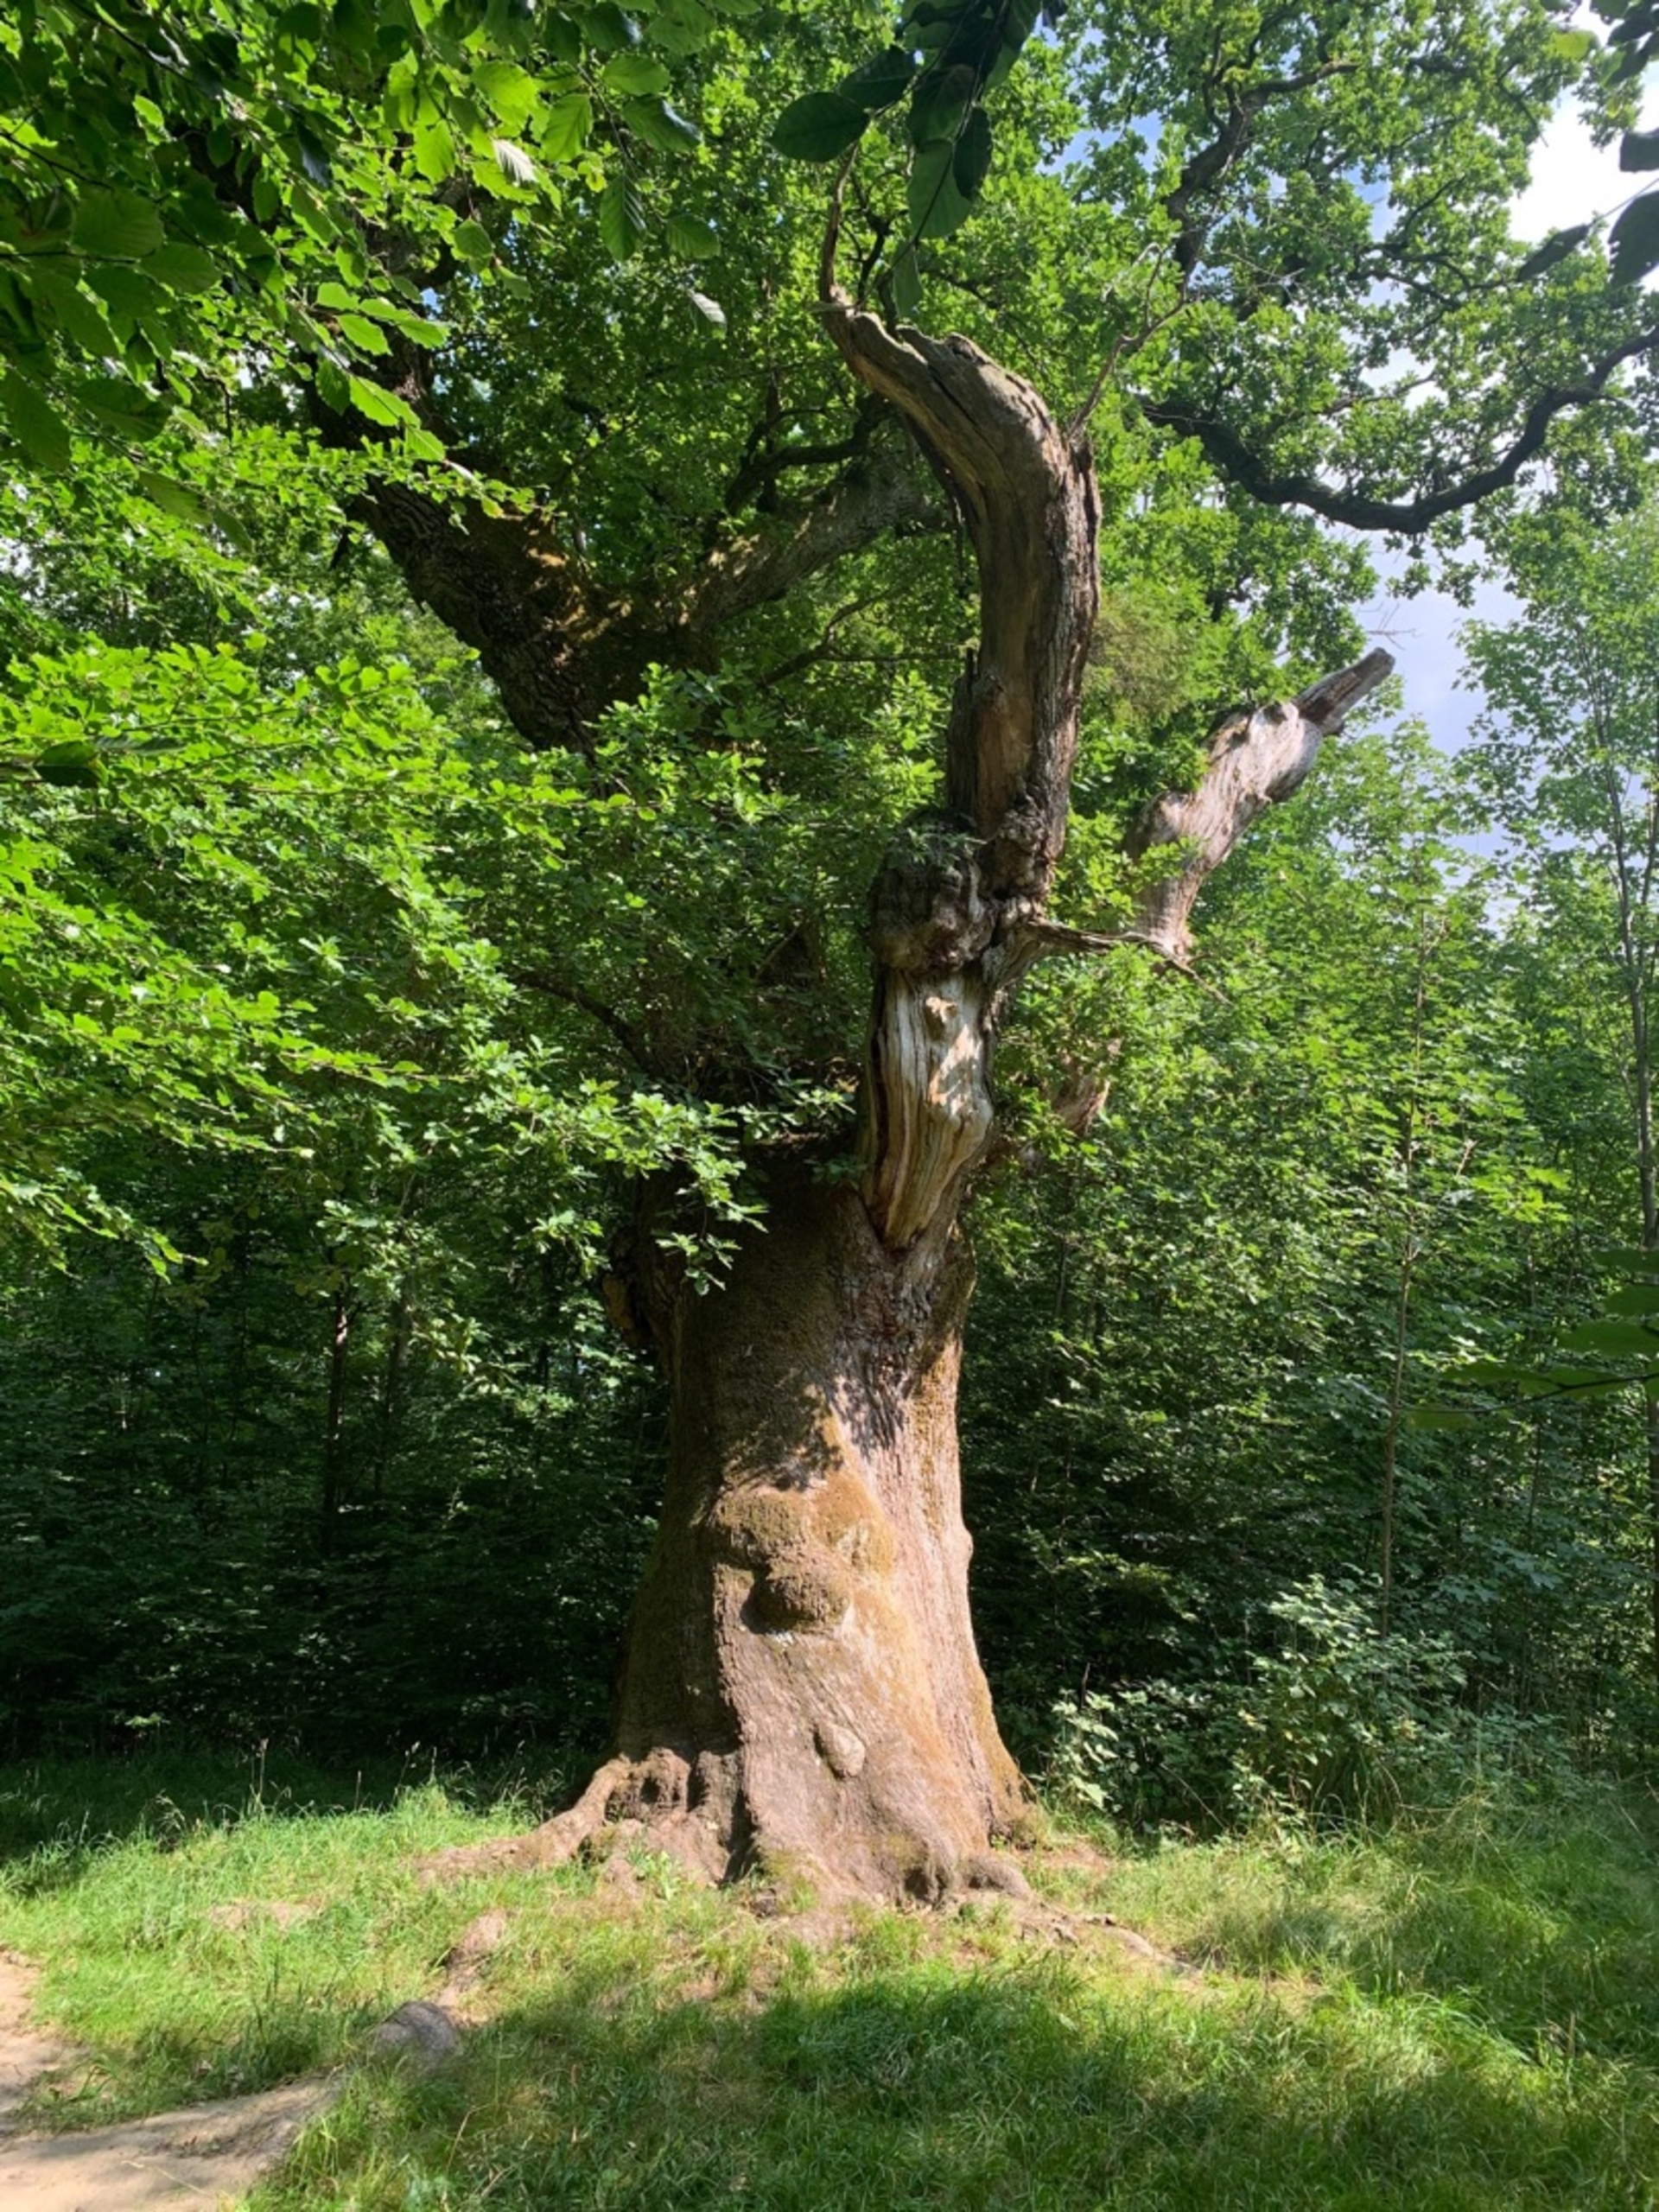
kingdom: Plantae
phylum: Tracheophyta
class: Magnoliopsida
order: Fagales
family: Fagaceae
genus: Quercus
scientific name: Quercus robur
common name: Stilk-eg/almindelig eg
